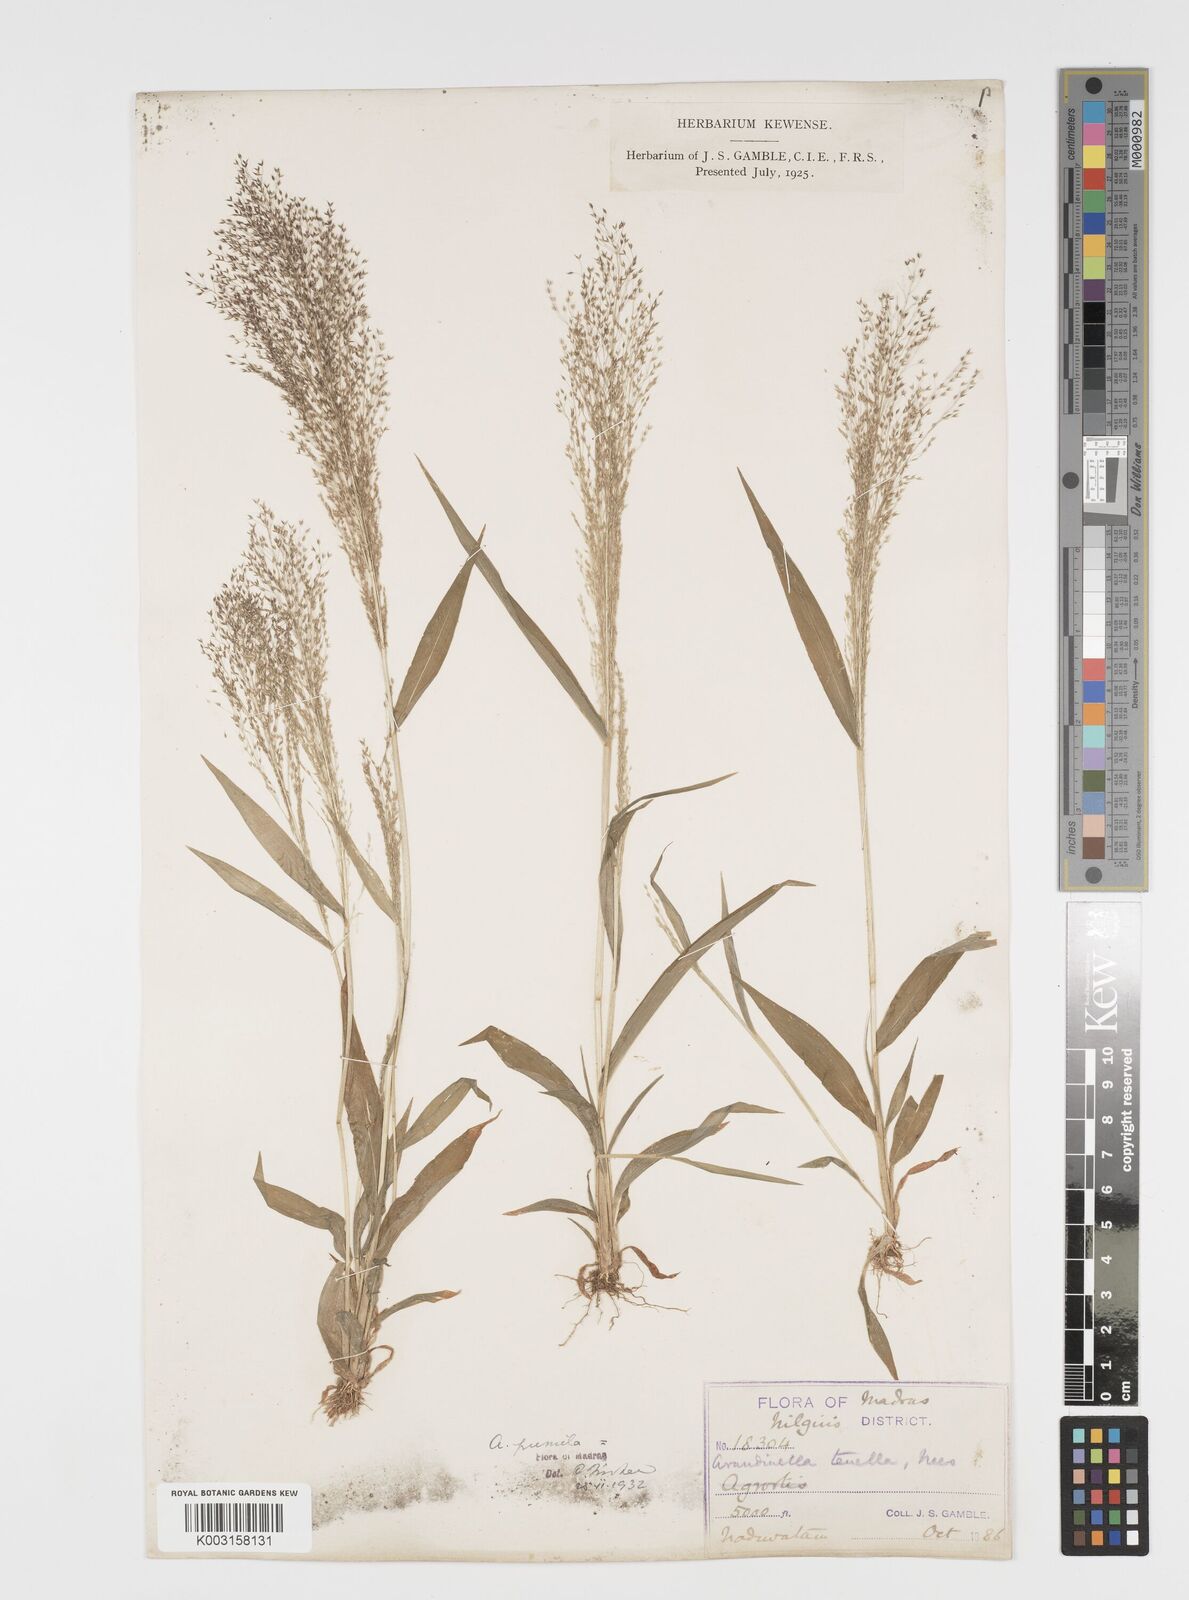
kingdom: Plantae
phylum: Tracheophyta
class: Liliopsida
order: Poales
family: Poaceae
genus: Arundinella
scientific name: Arundinella pumila
